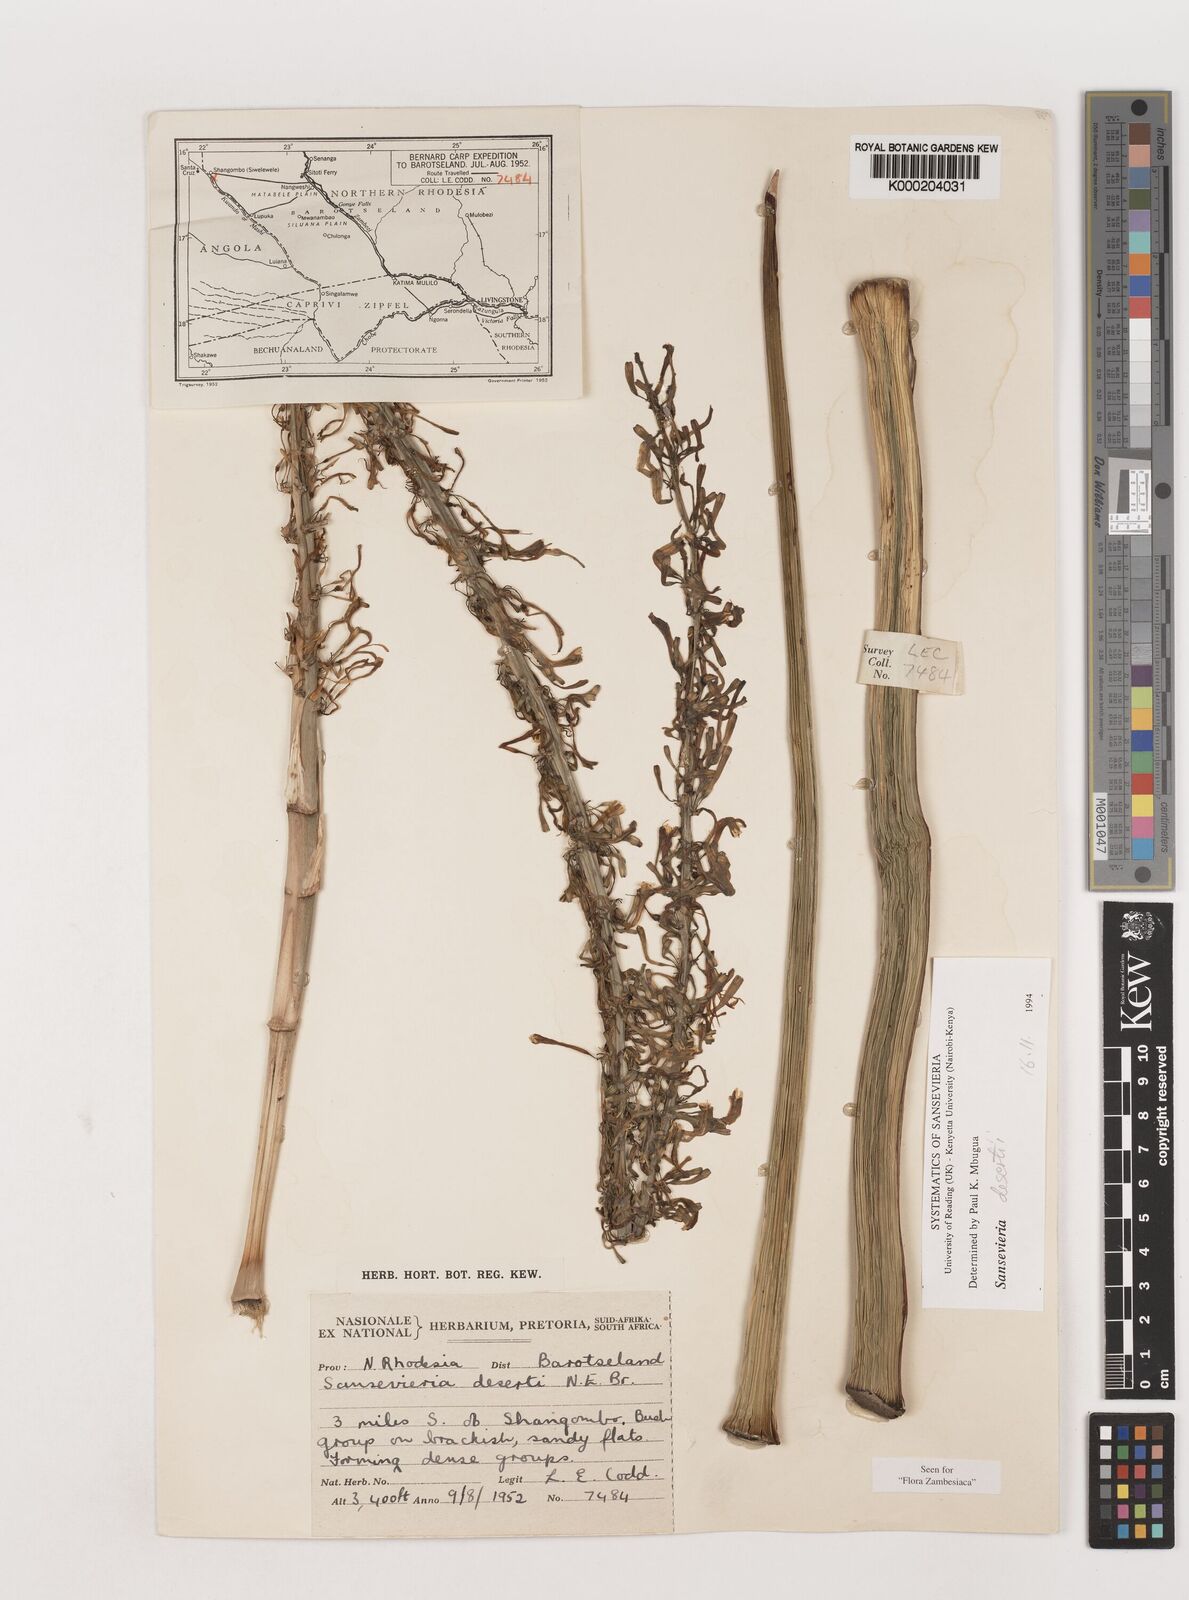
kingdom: Plantae
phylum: Tracheophyta
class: Liliopsida
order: Asparagales
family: Asparagaceae
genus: Dracaena
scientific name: Dracaena pearsonii
